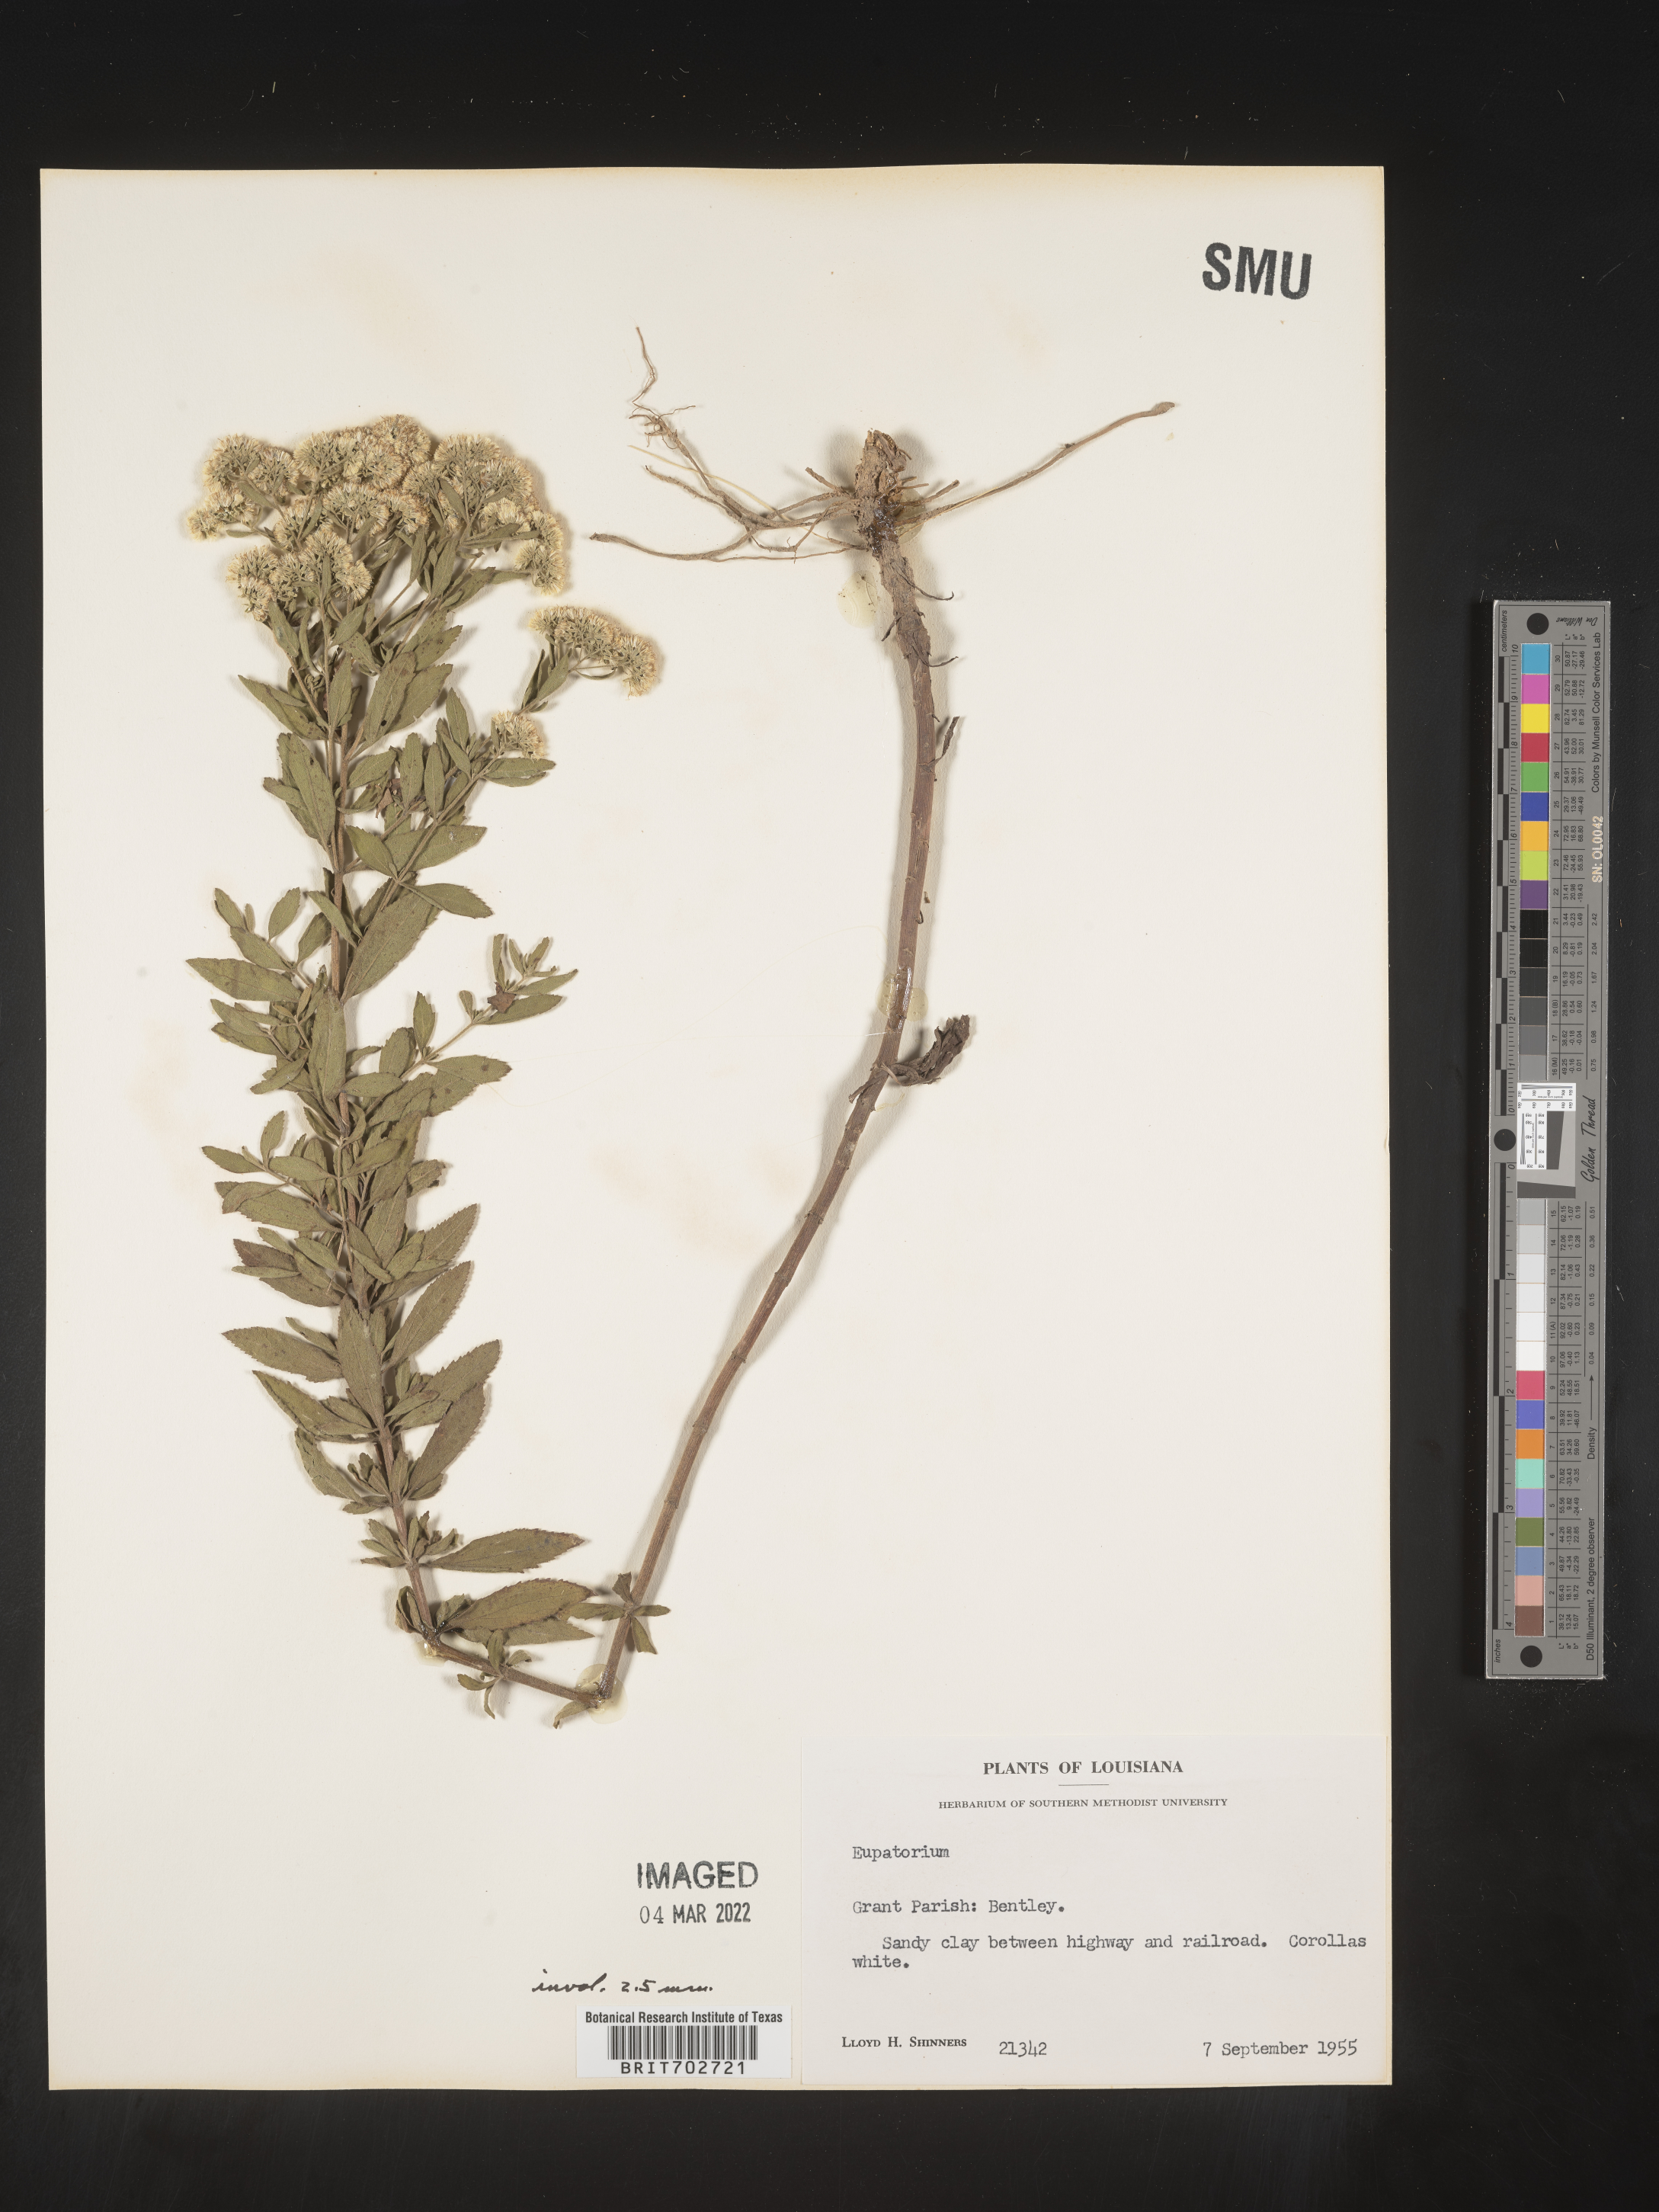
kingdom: Plantae
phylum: Tracheophyta
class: Magnoliopsida
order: Asterales
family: Asteraceae
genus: Eupatorium
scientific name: Eupatorium
